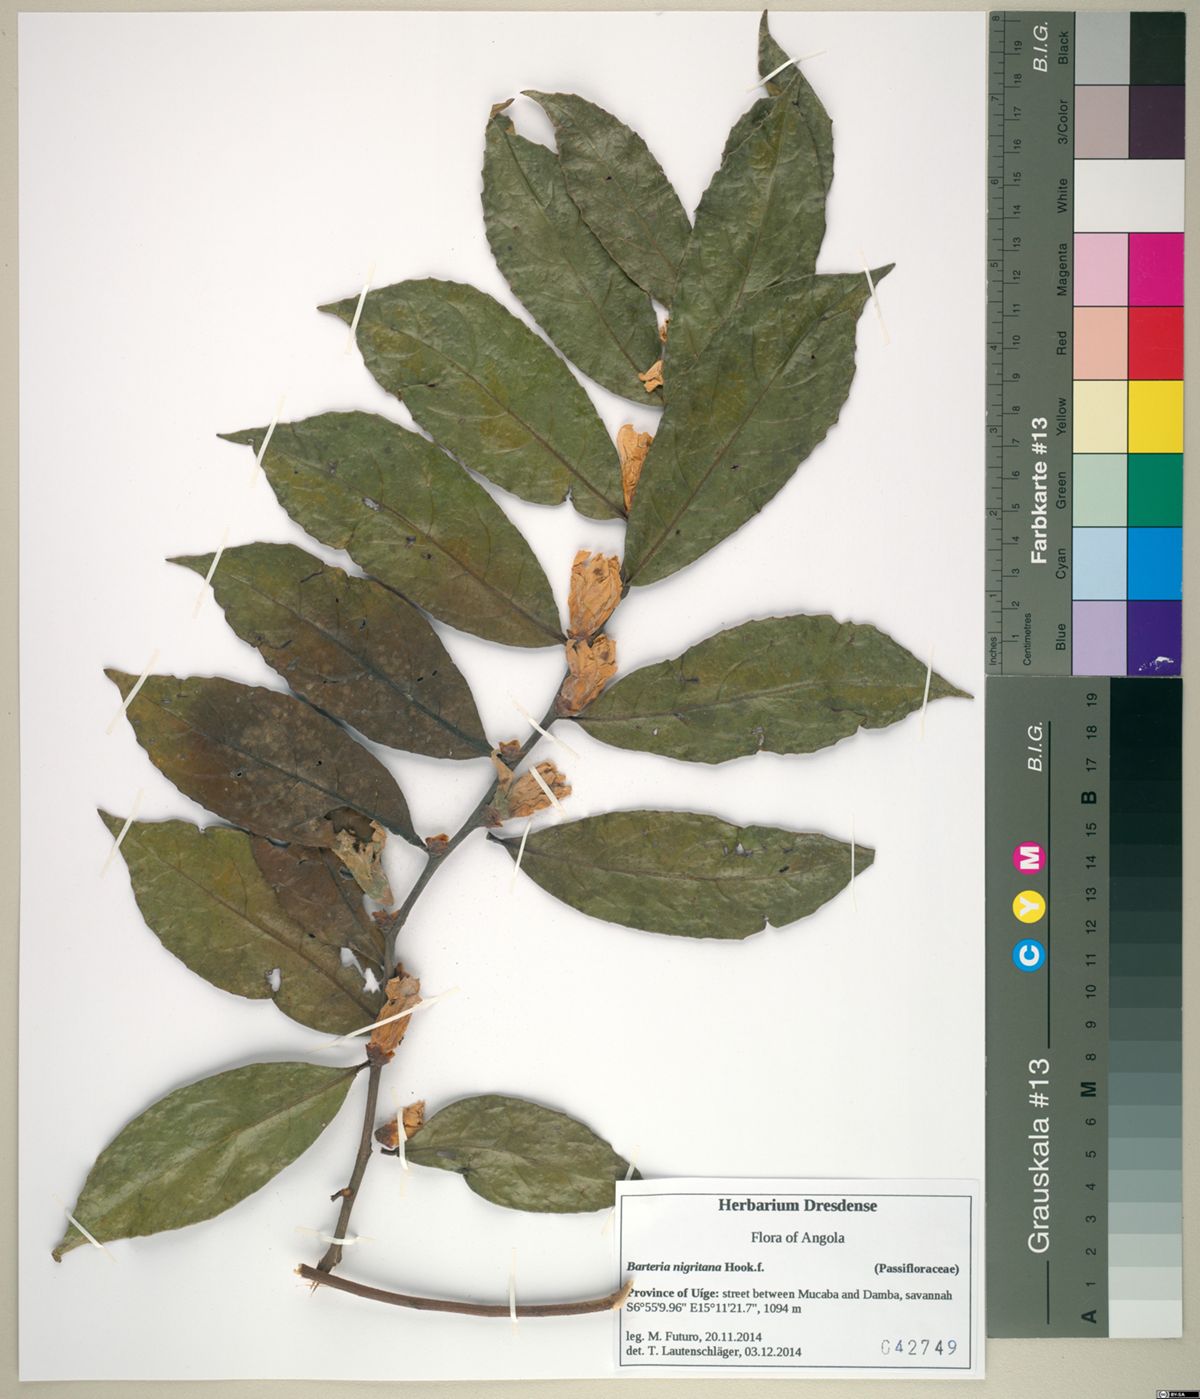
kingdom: Plantae
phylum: Tracheophyta
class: Magnoliopsida
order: Malpighiales
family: Passifloraceae
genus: Barteria
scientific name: Barteria solida
